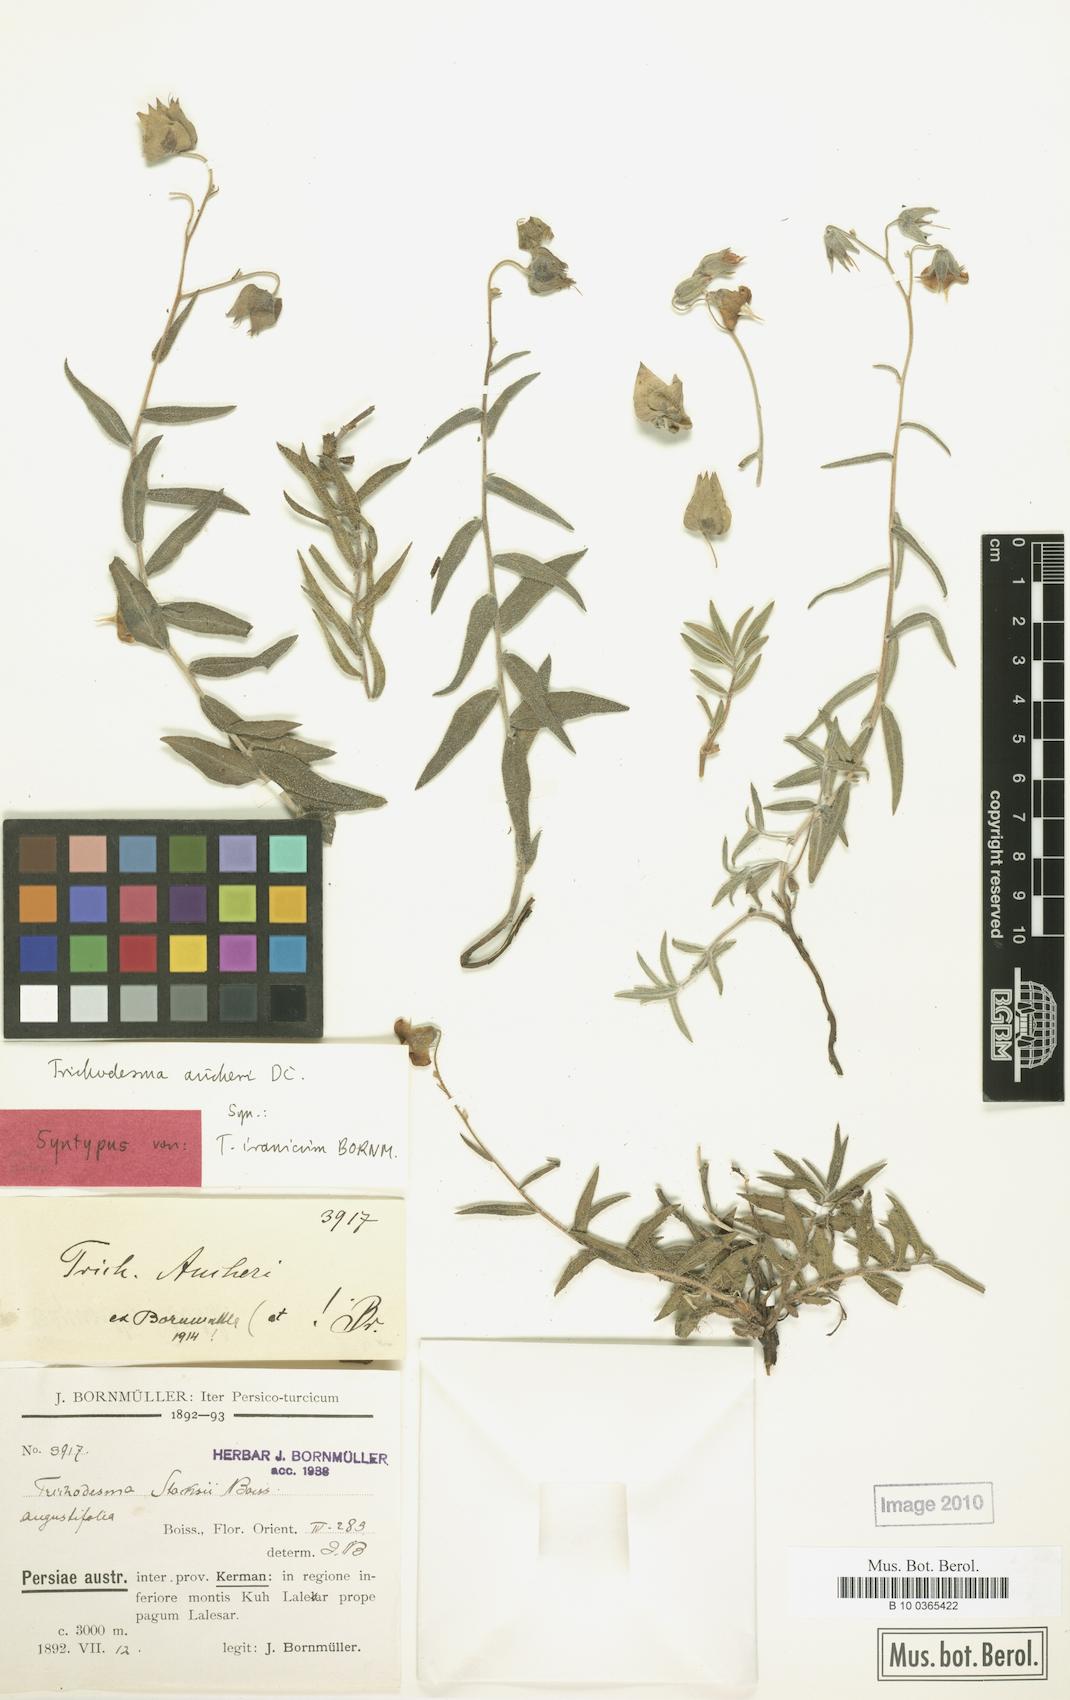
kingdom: Plantae
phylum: Tracheophyta
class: Magnoliopsida
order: Boraginales
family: Boraginaceae
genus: Trichodesma
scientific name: Trichodesma aucheri
